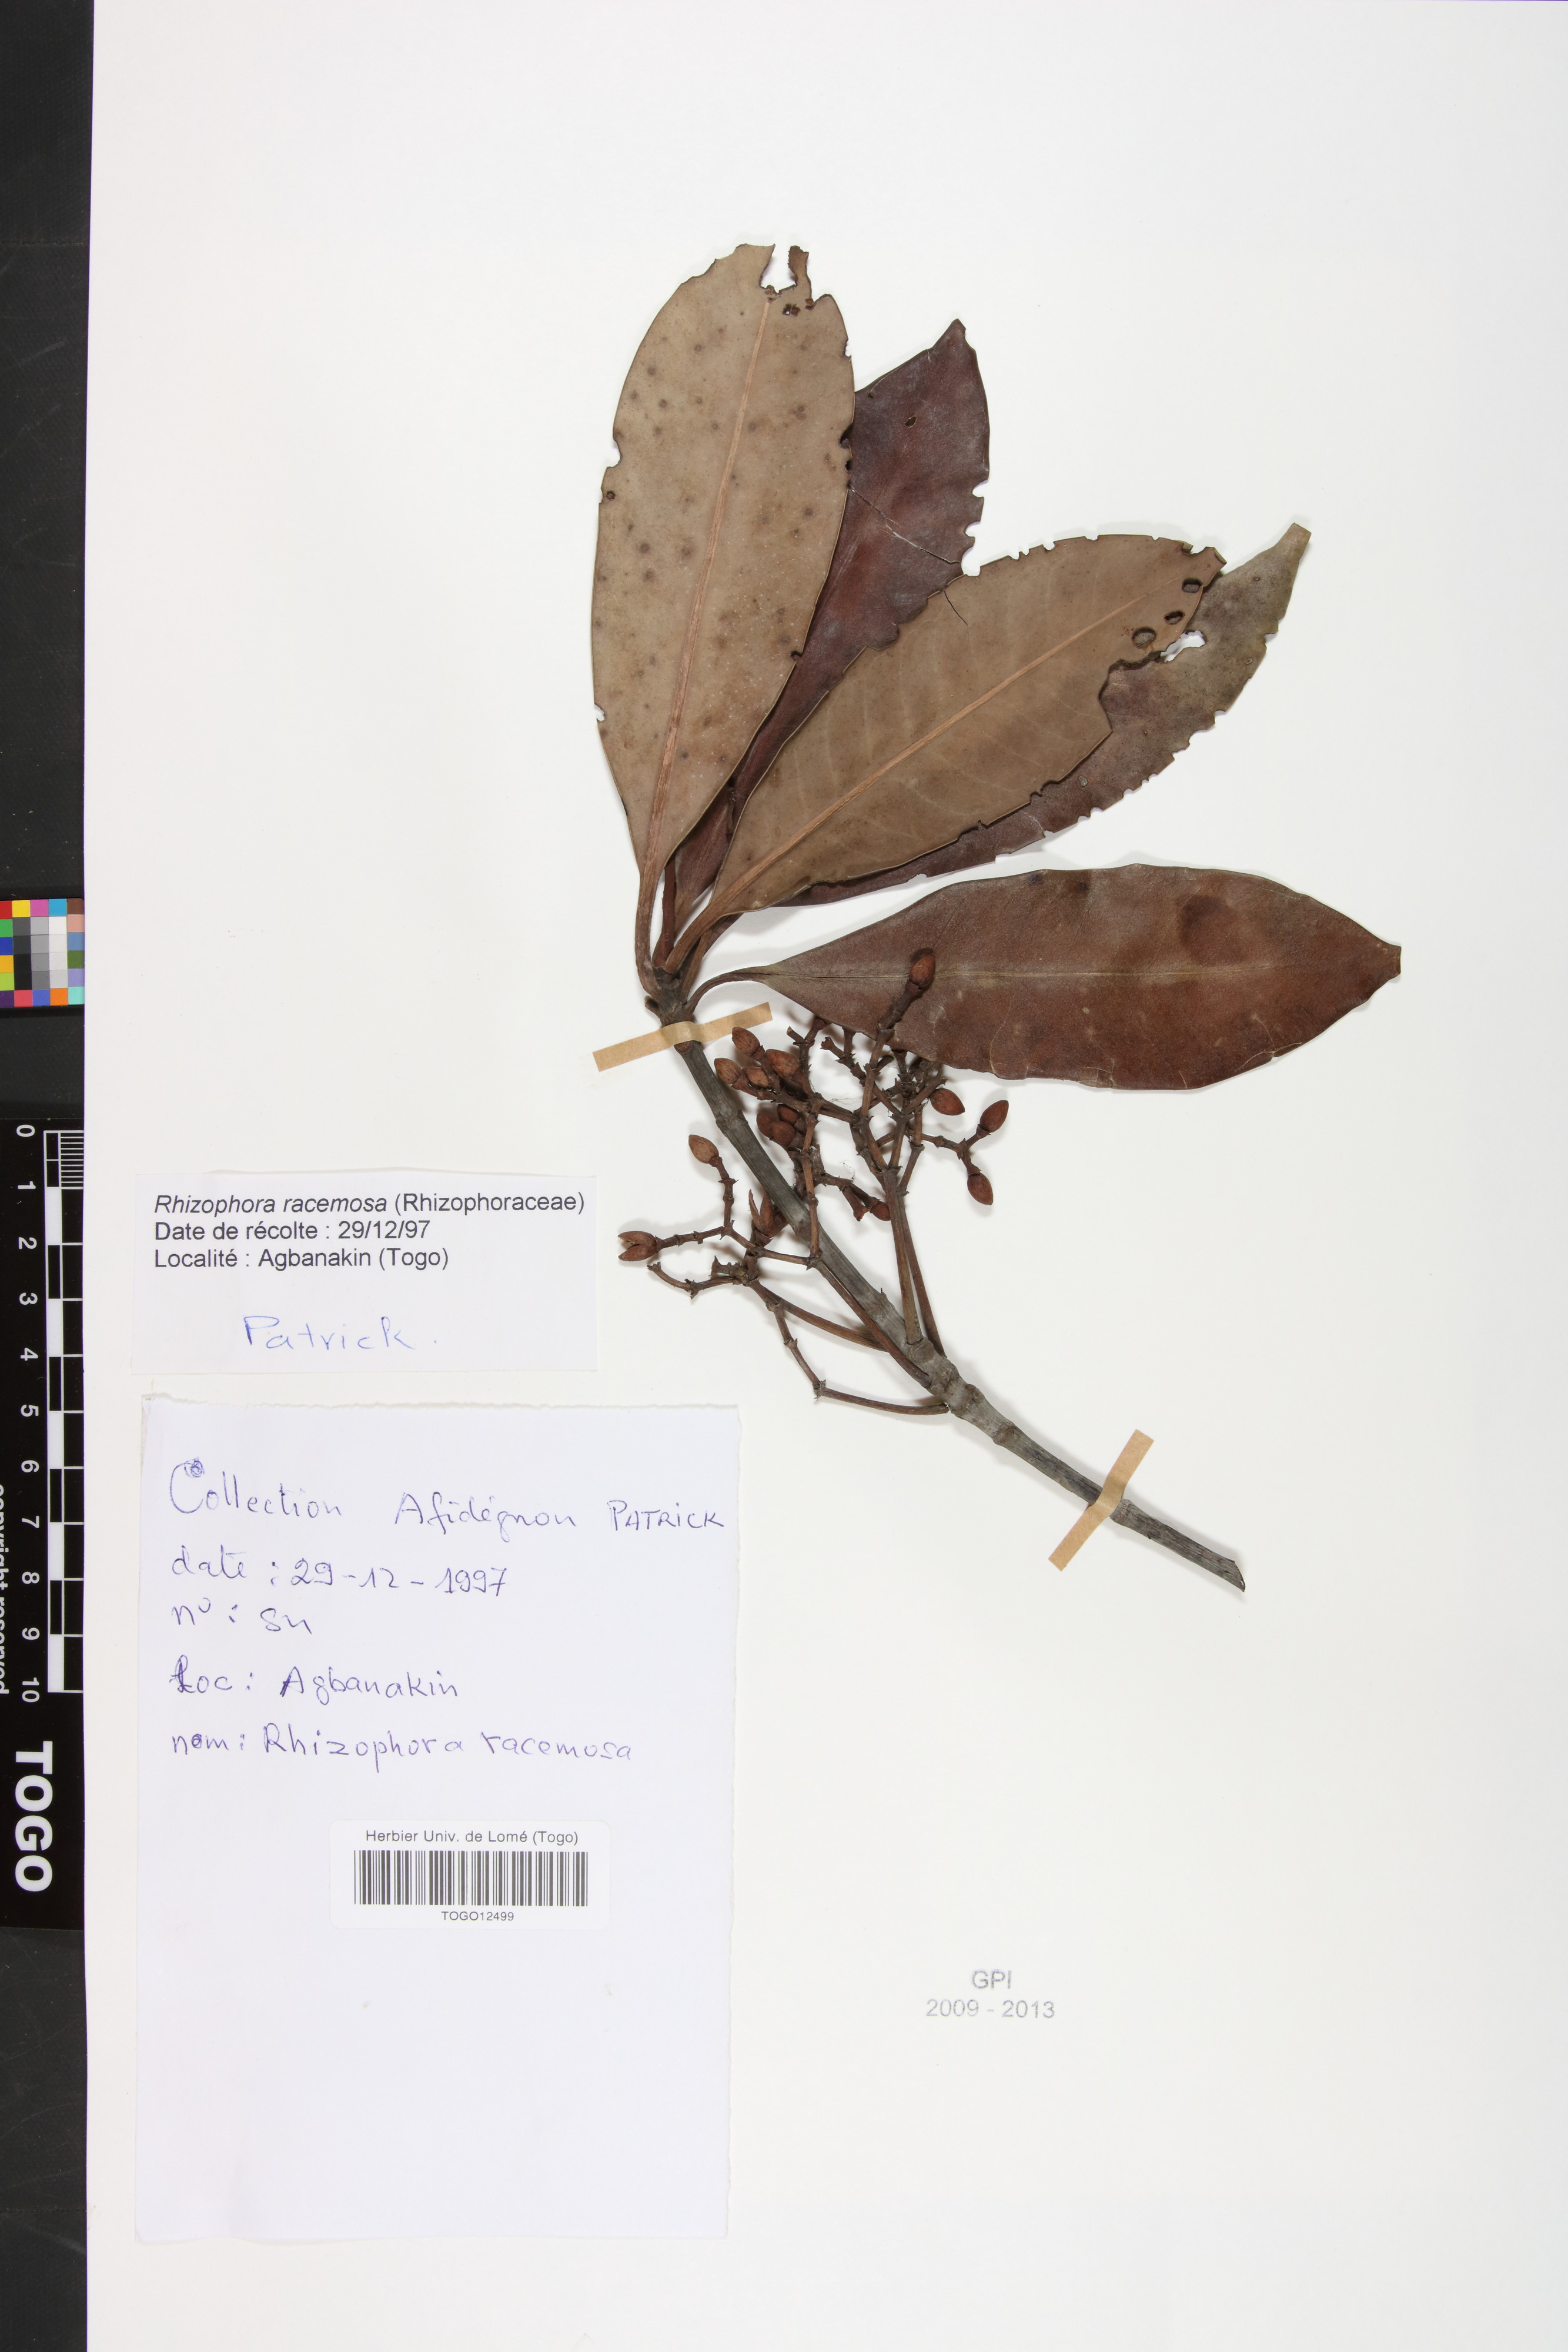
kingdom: Plantae
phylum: Tracheophyta
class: Magnoliopsida
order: Malpighiales
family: Rhizophoraceae
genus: Rhizophora
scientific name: Rhizophora racemosa
